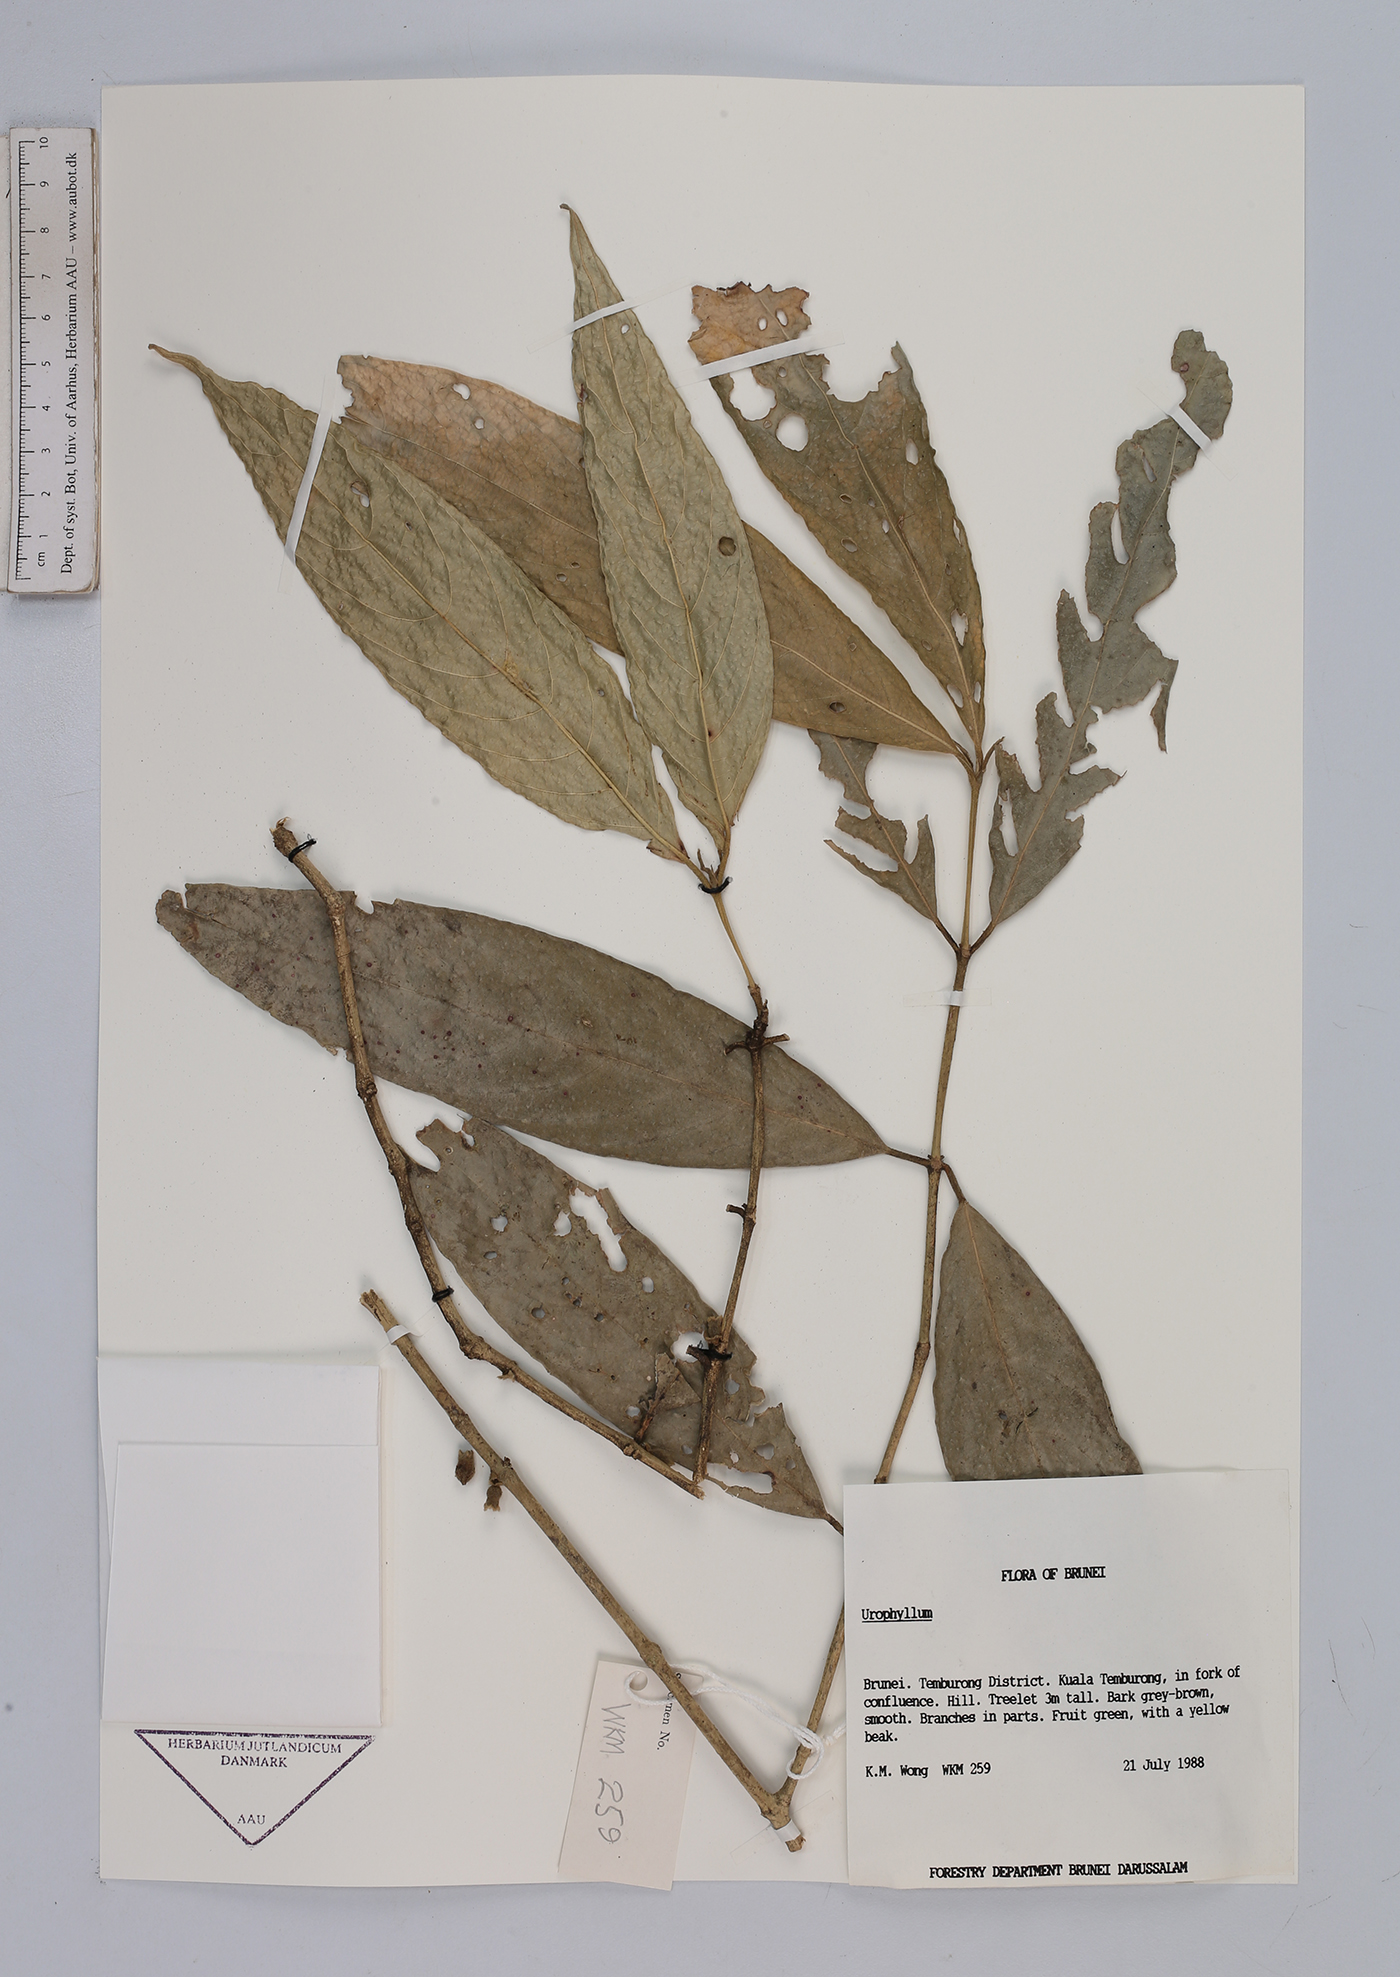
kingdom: Plantae
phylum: Tracheophyta
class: Magnoliopsida
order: Gentianales
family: Rubiaceae
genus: Urophyllum
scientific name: Urophyllum
